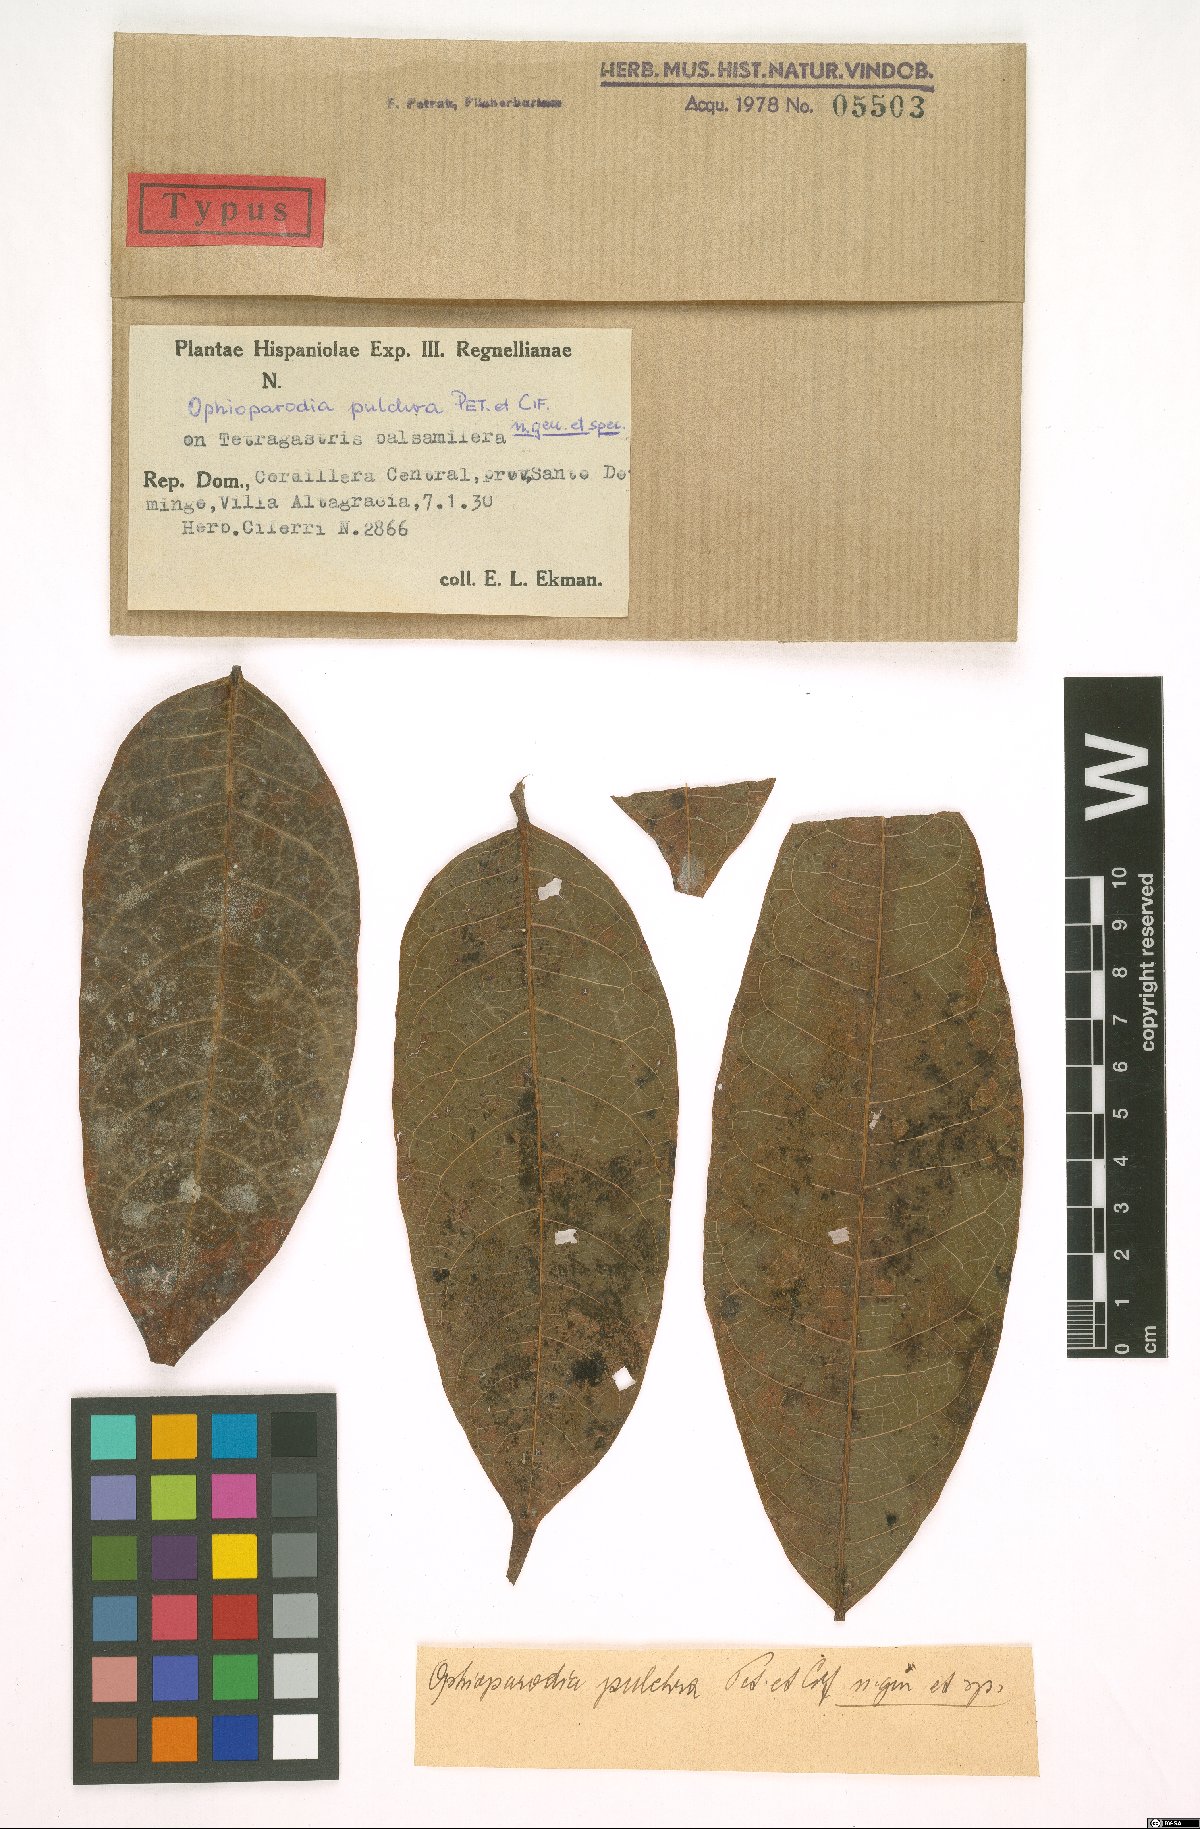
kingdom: Fungi
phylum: Ascomycota
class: Dothideomycetes
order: Dothideales
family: Parodiopsidaceae
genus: Ophioparodia
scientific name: Ophioparodia pulchra
